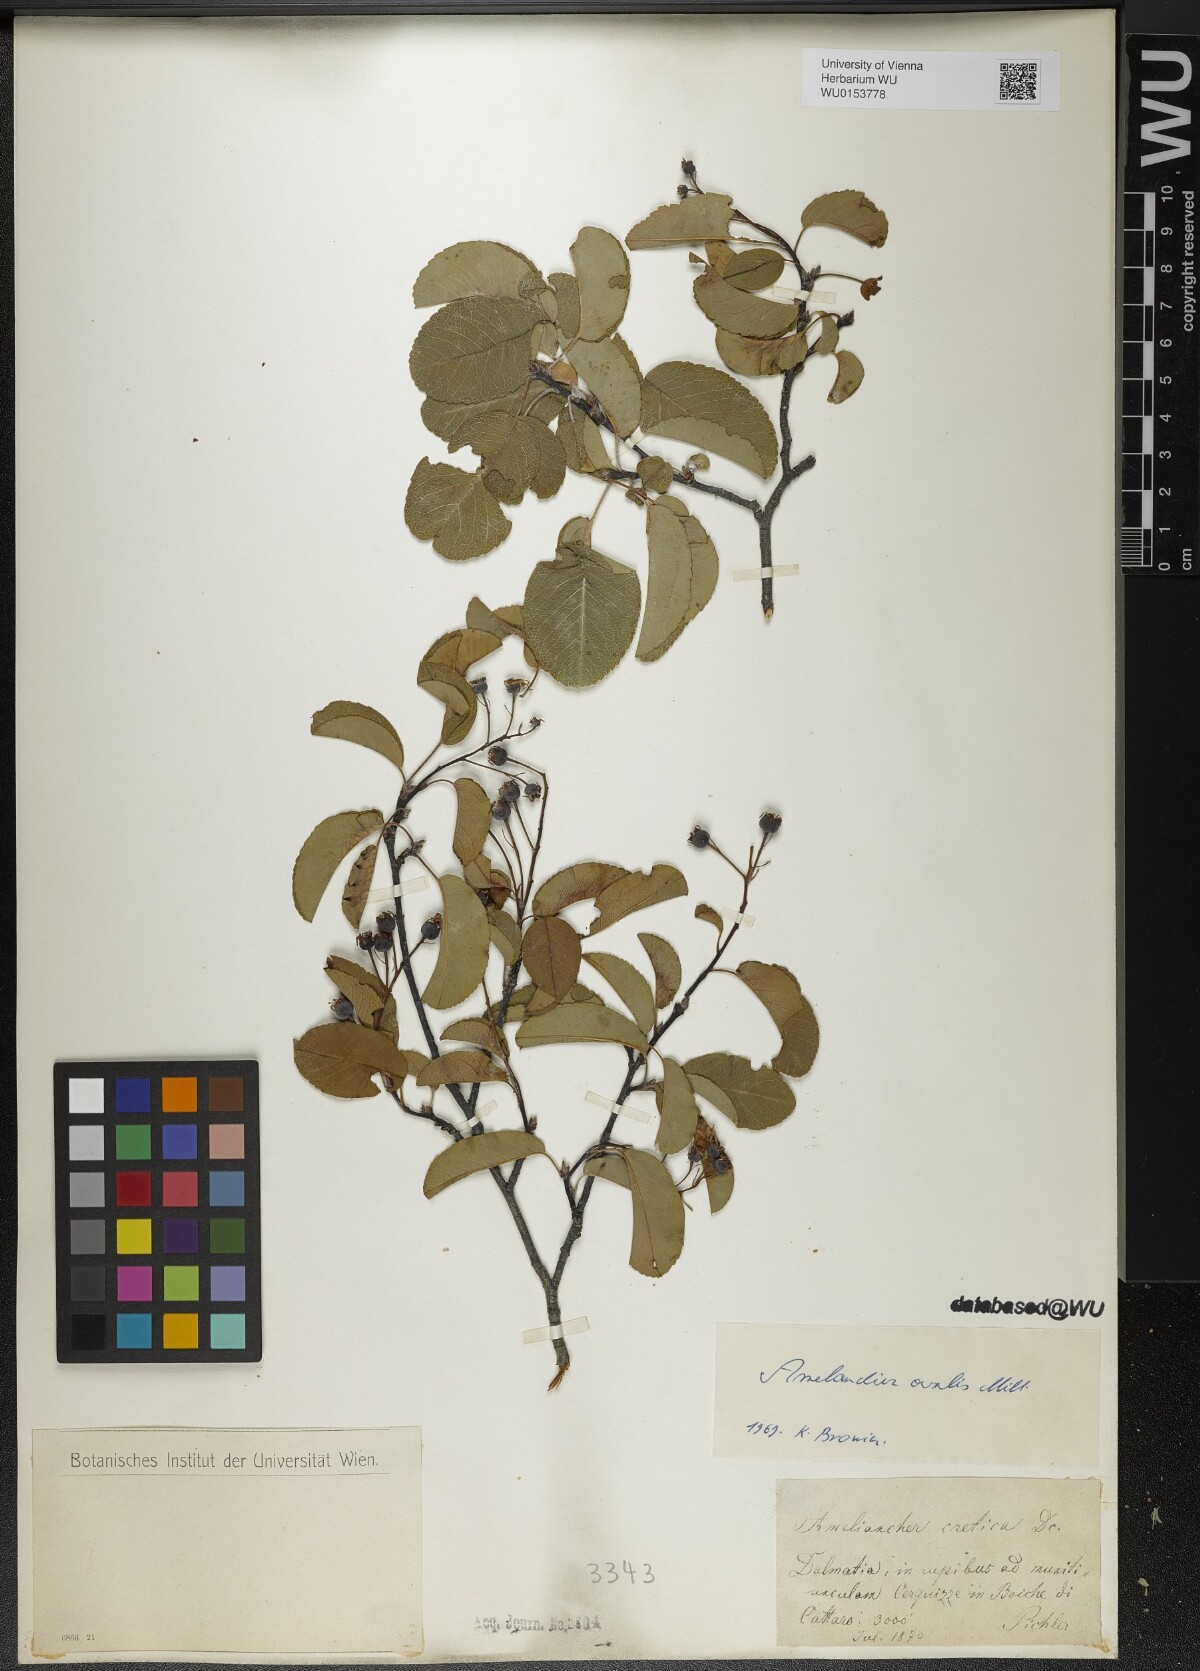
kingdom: Plantae
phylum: Tracheophyta
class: Magnoliopsida
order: Rosales
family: Rosaceae
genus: Amelanchier
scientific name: Amelanchier ovalis
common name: Serviceberry
